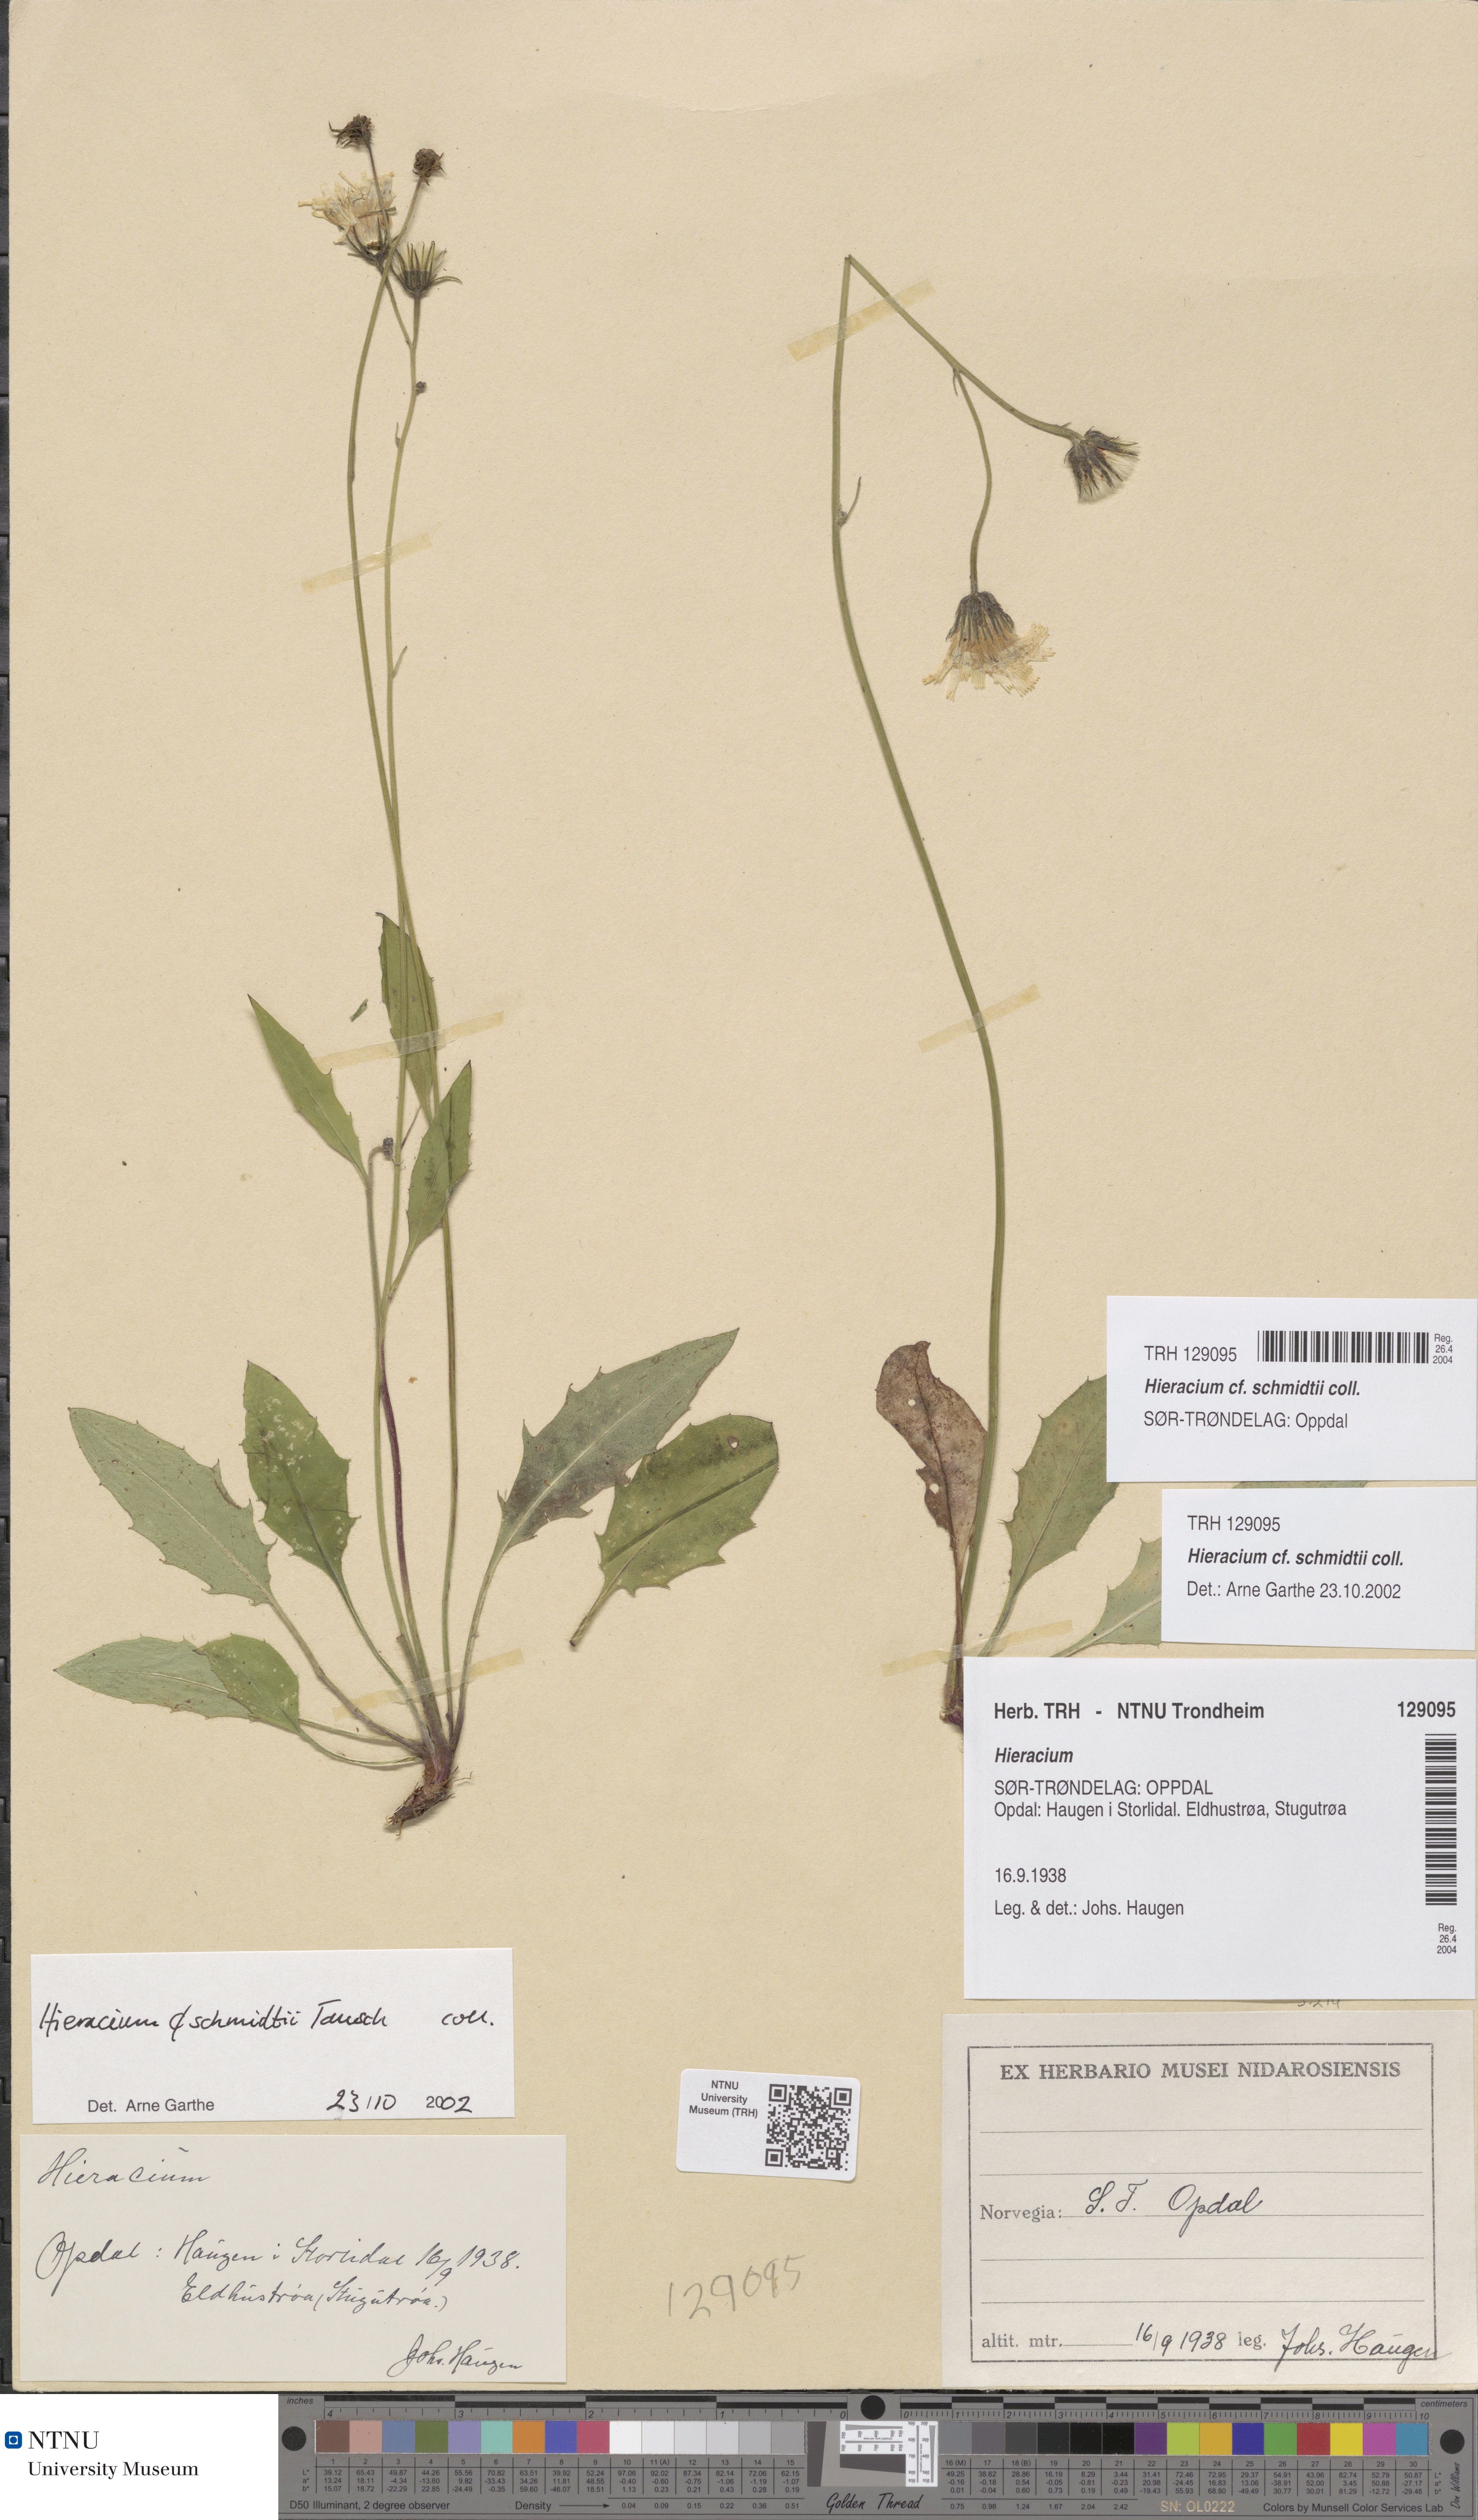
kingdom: Plantae
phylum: Tracheophyta
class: Magnoliopsida
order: Asterales
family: Asteraceae
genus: Hieracium
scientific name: Hieracium schmidtii
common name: Schmidt's hawkweed
